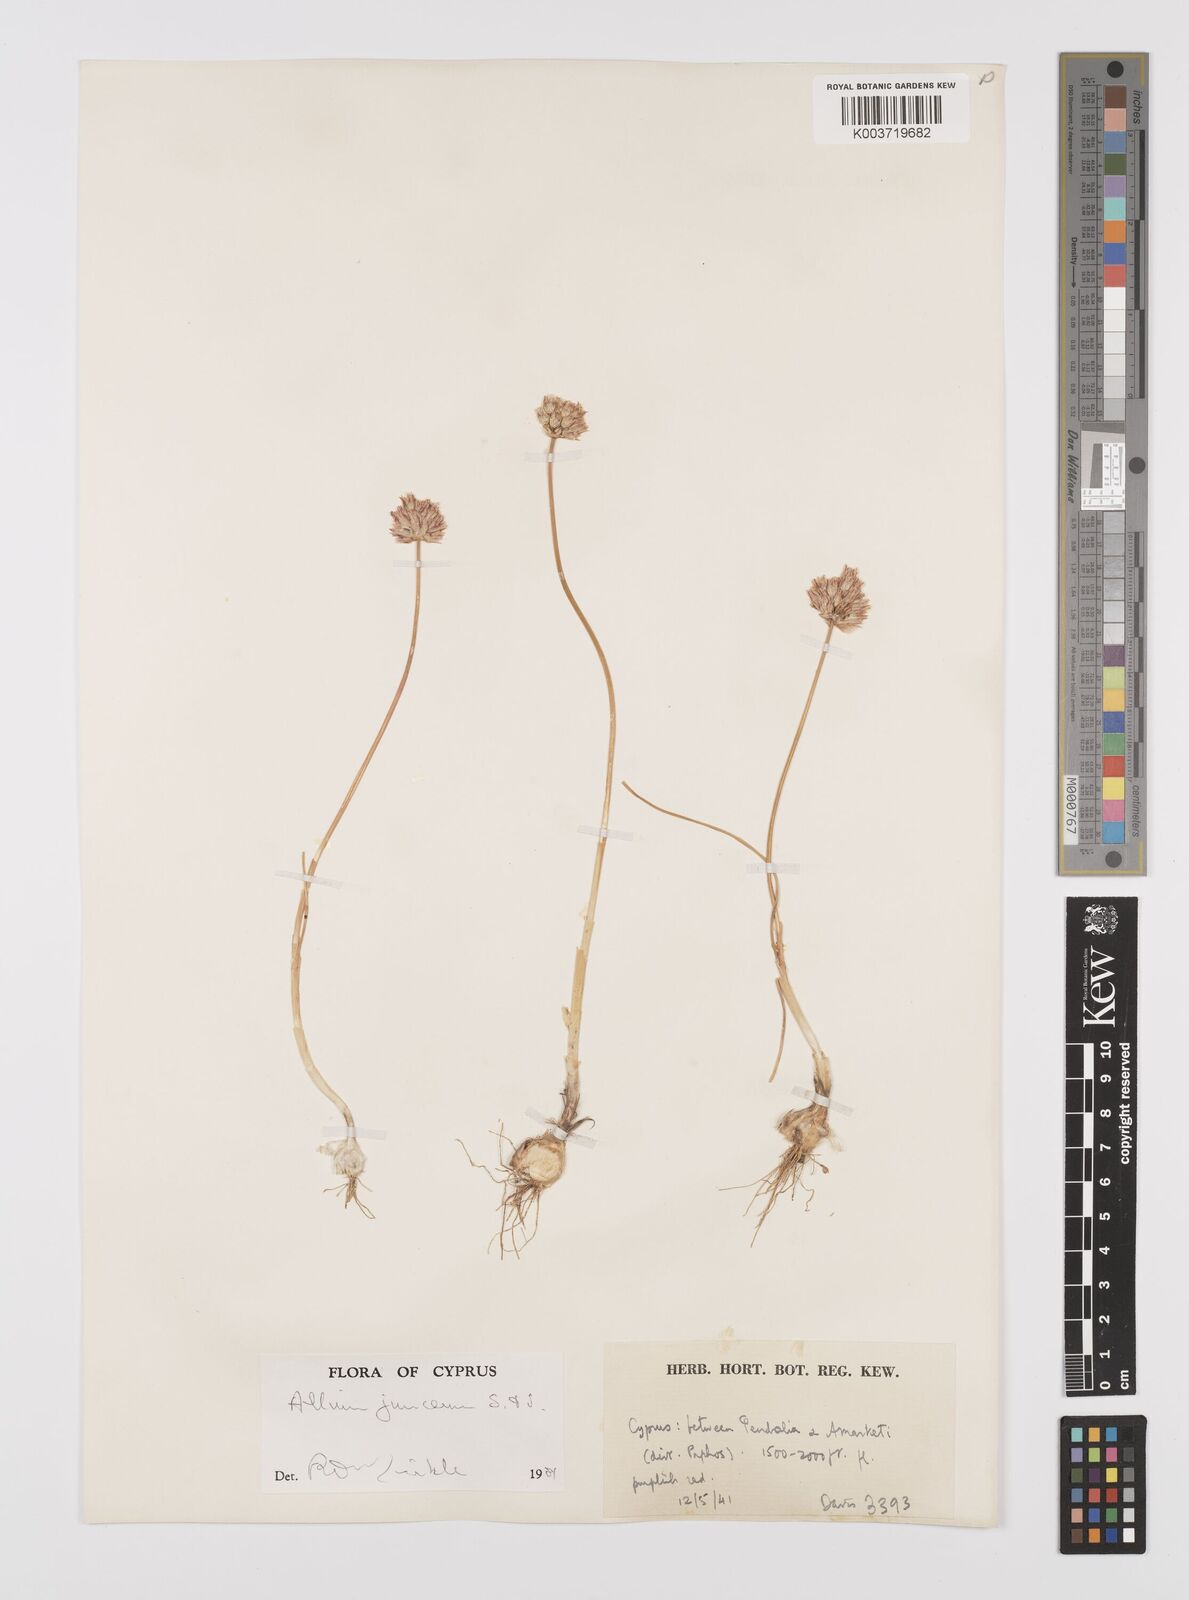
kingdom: Plantae
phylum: Tracheophyta
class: Liliopsida
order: Asparagales
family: Amaryllidaceae
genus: Allium
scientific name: Allium junceum
